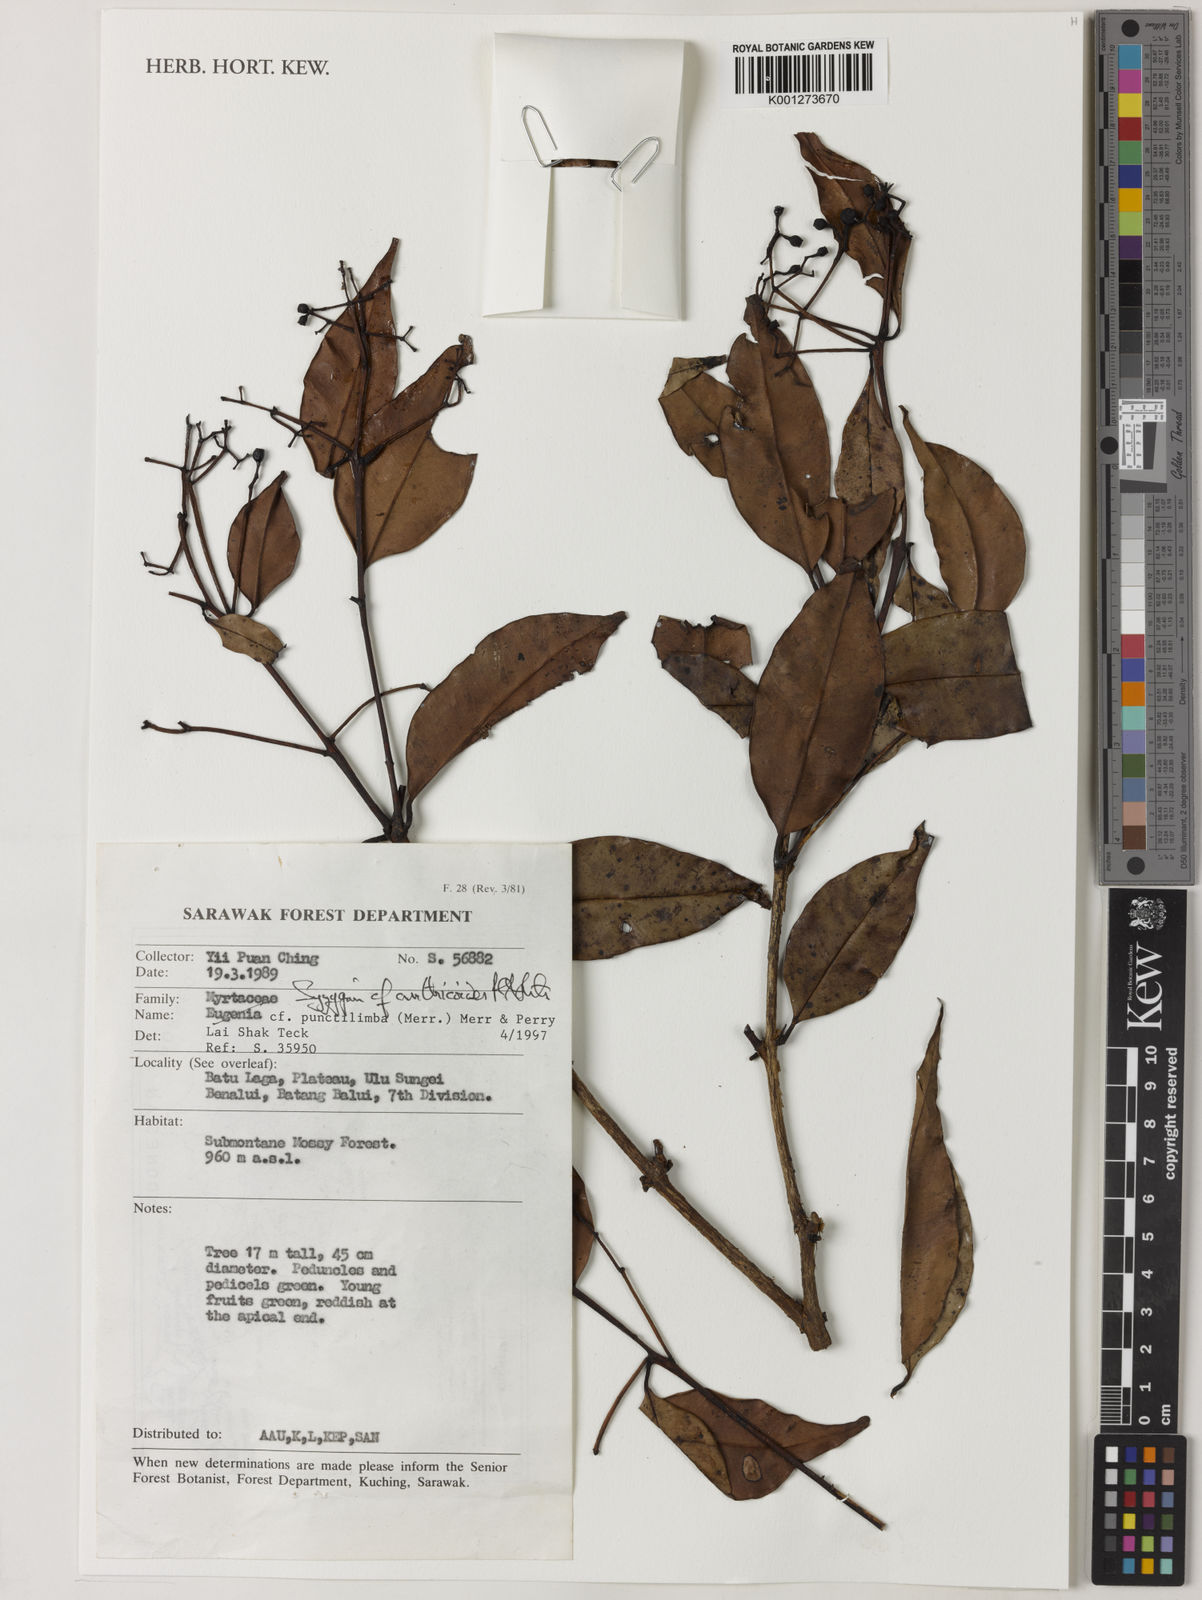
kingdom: Plantae
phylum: Tracheophyta
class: Magnoliopsida
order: Myrtales
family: Myrtaceae
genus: Syzygium
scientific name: Syzygium anthicoides
